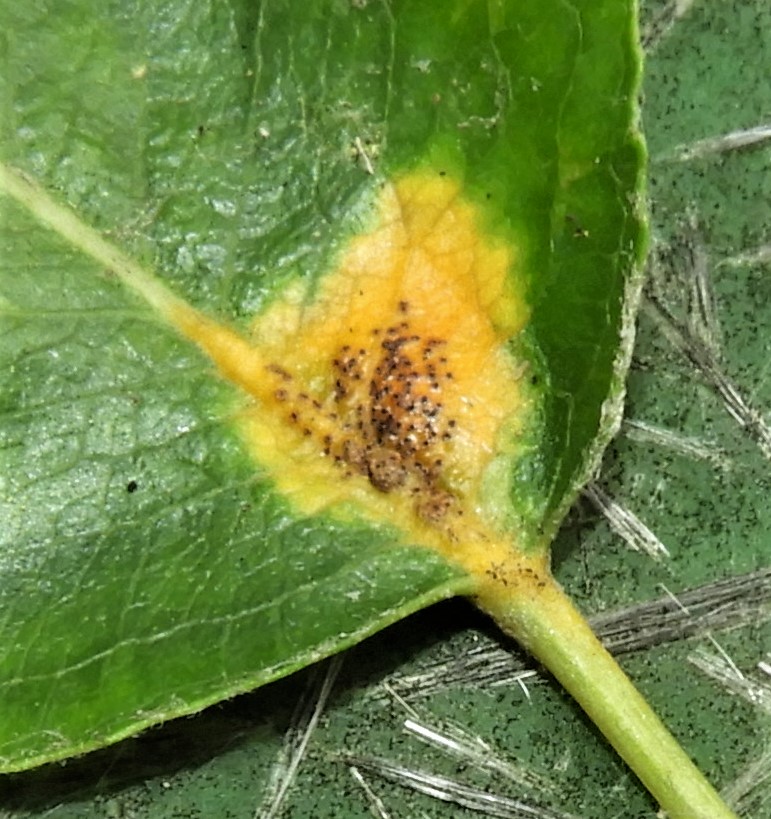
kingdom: Fungi
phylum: Basidiomycota
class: Pucciniomycetes
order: Pucciniales
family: Gymnosporangiaceae
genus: Gymnosporangium
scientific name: Gymnosporangium sabinae
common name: pæregitter-bævrerust
